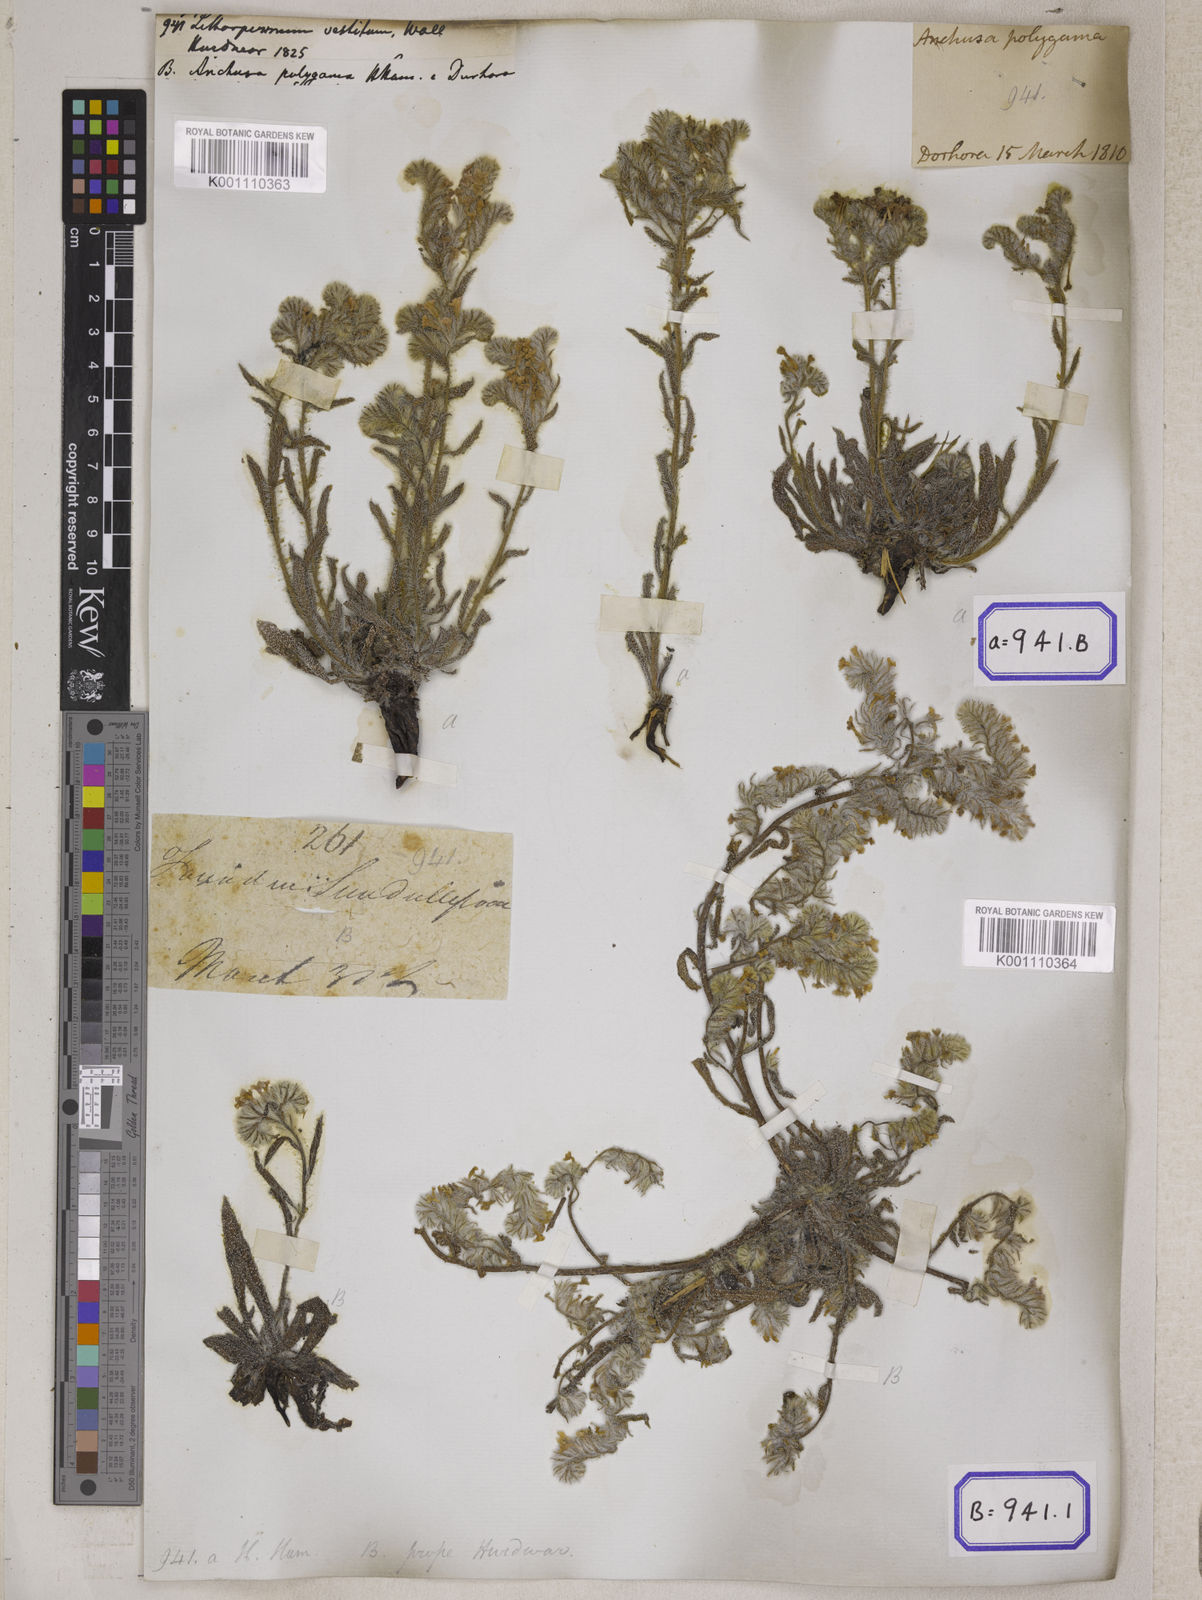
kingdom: Plantae
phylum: Tracheophyta
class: Magnoliopsida
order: Boraginales
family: Boraginaceae
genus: Lithospermum
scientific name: Lithospermum
